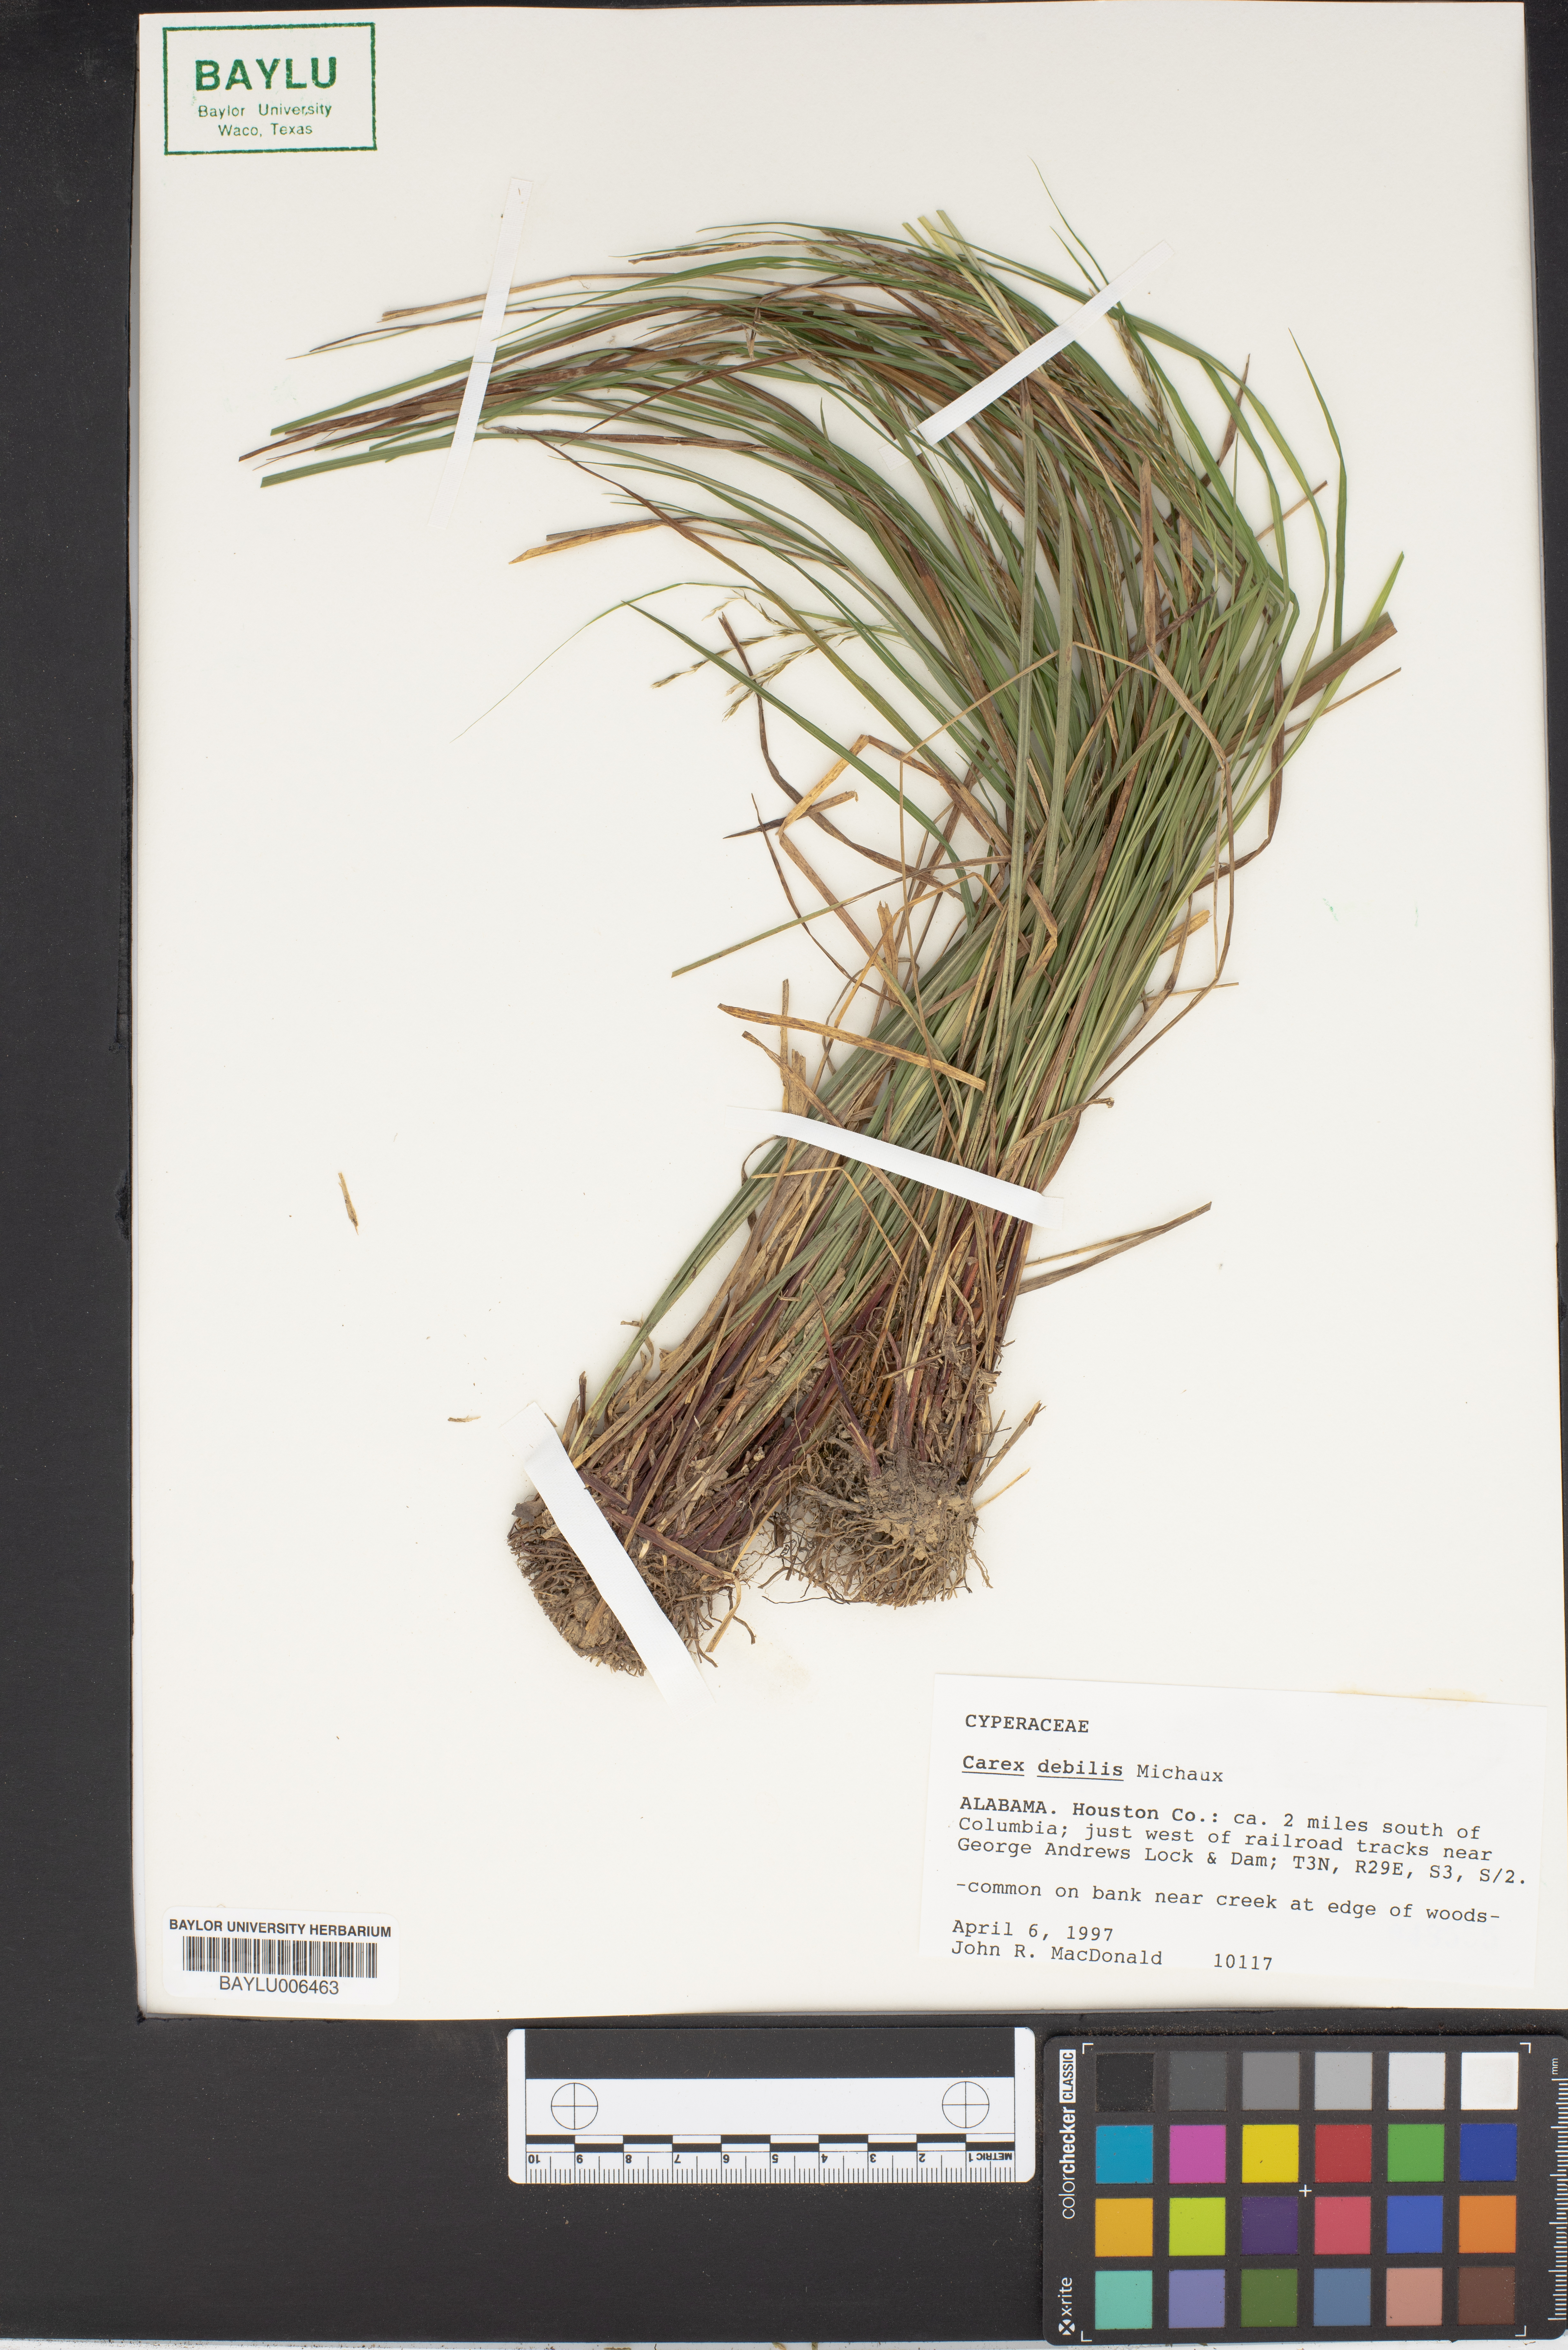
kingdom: Plantae
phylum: Tracheophyta
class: Liliopsida
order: Poales
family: Cyperaceae
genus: Carex
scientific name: Carex debilis
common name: White-edge sedge
